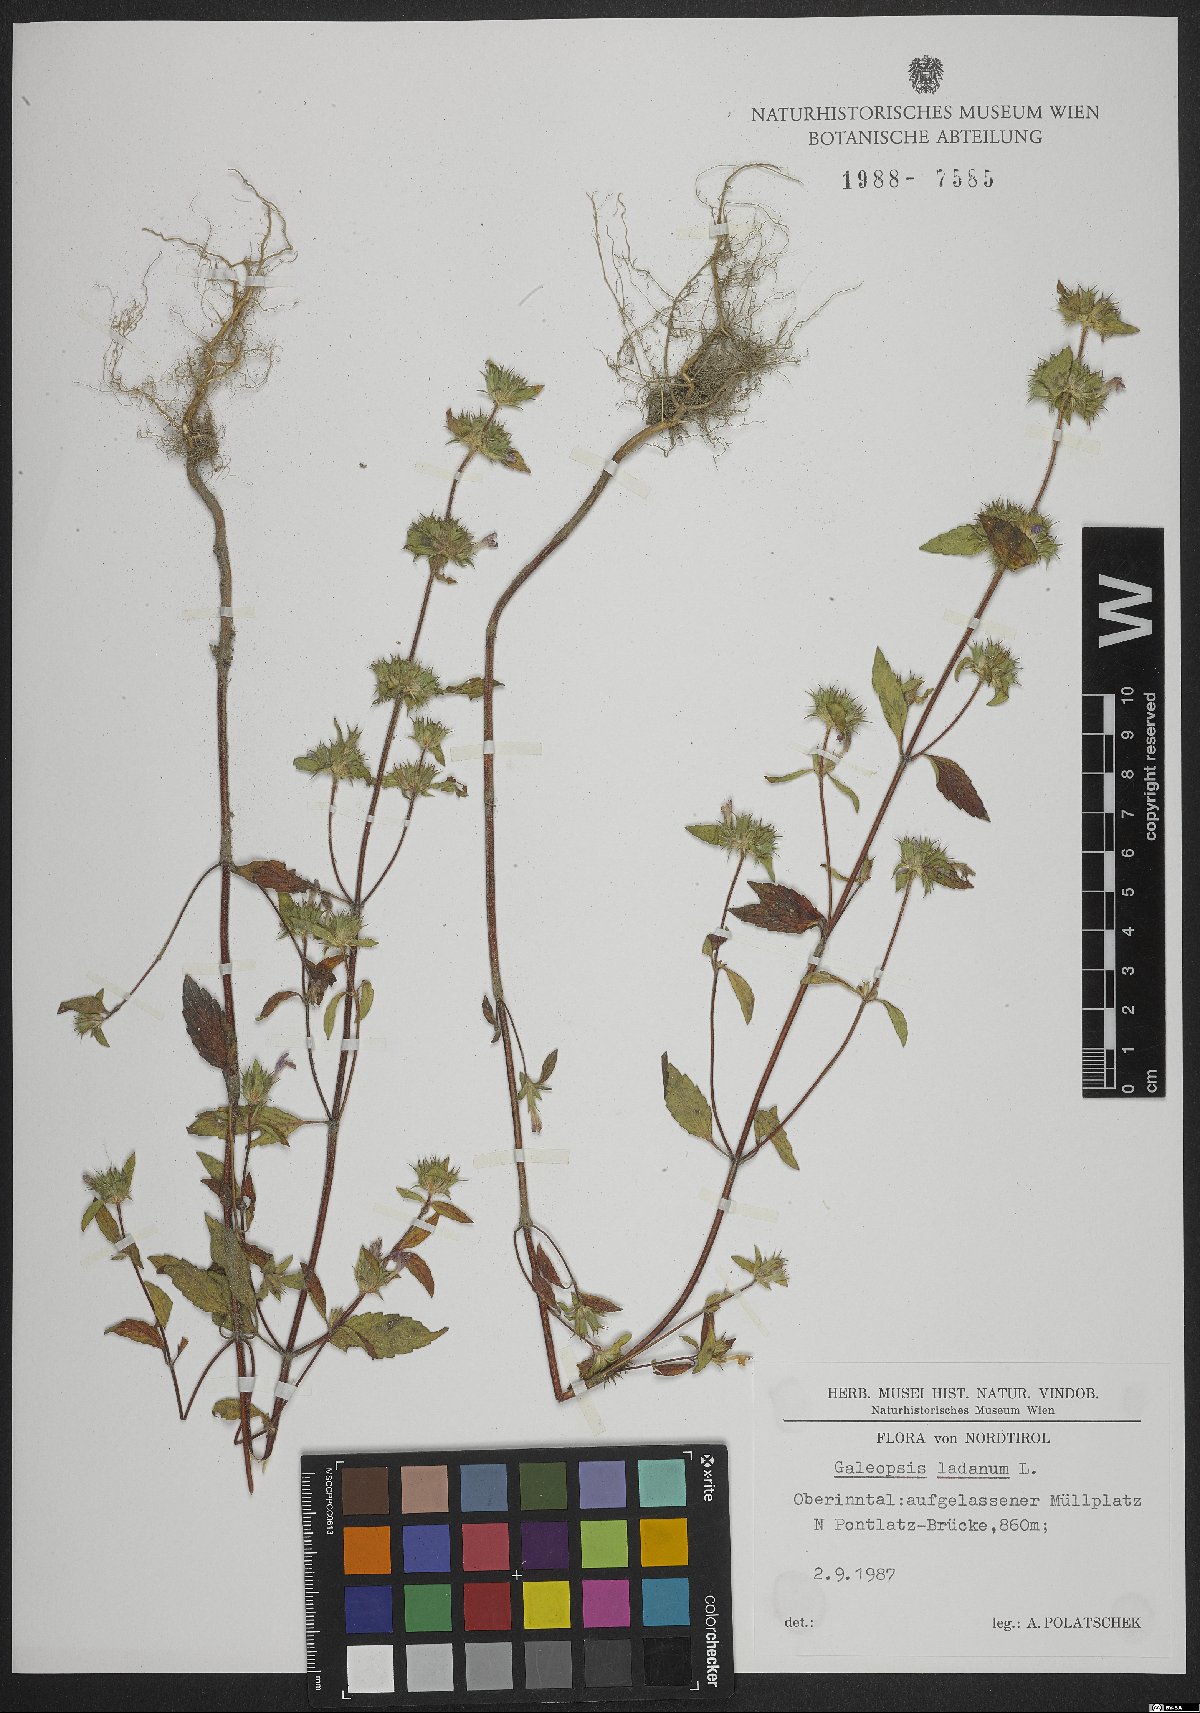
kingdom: Plantae
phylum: Tracheophyta
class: Magnoliopsida
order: Lamiales
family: Lamiaceae
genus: Galeopsis
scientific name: Galeopsis ladanum
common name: Broad-leaved hemp-nettle
